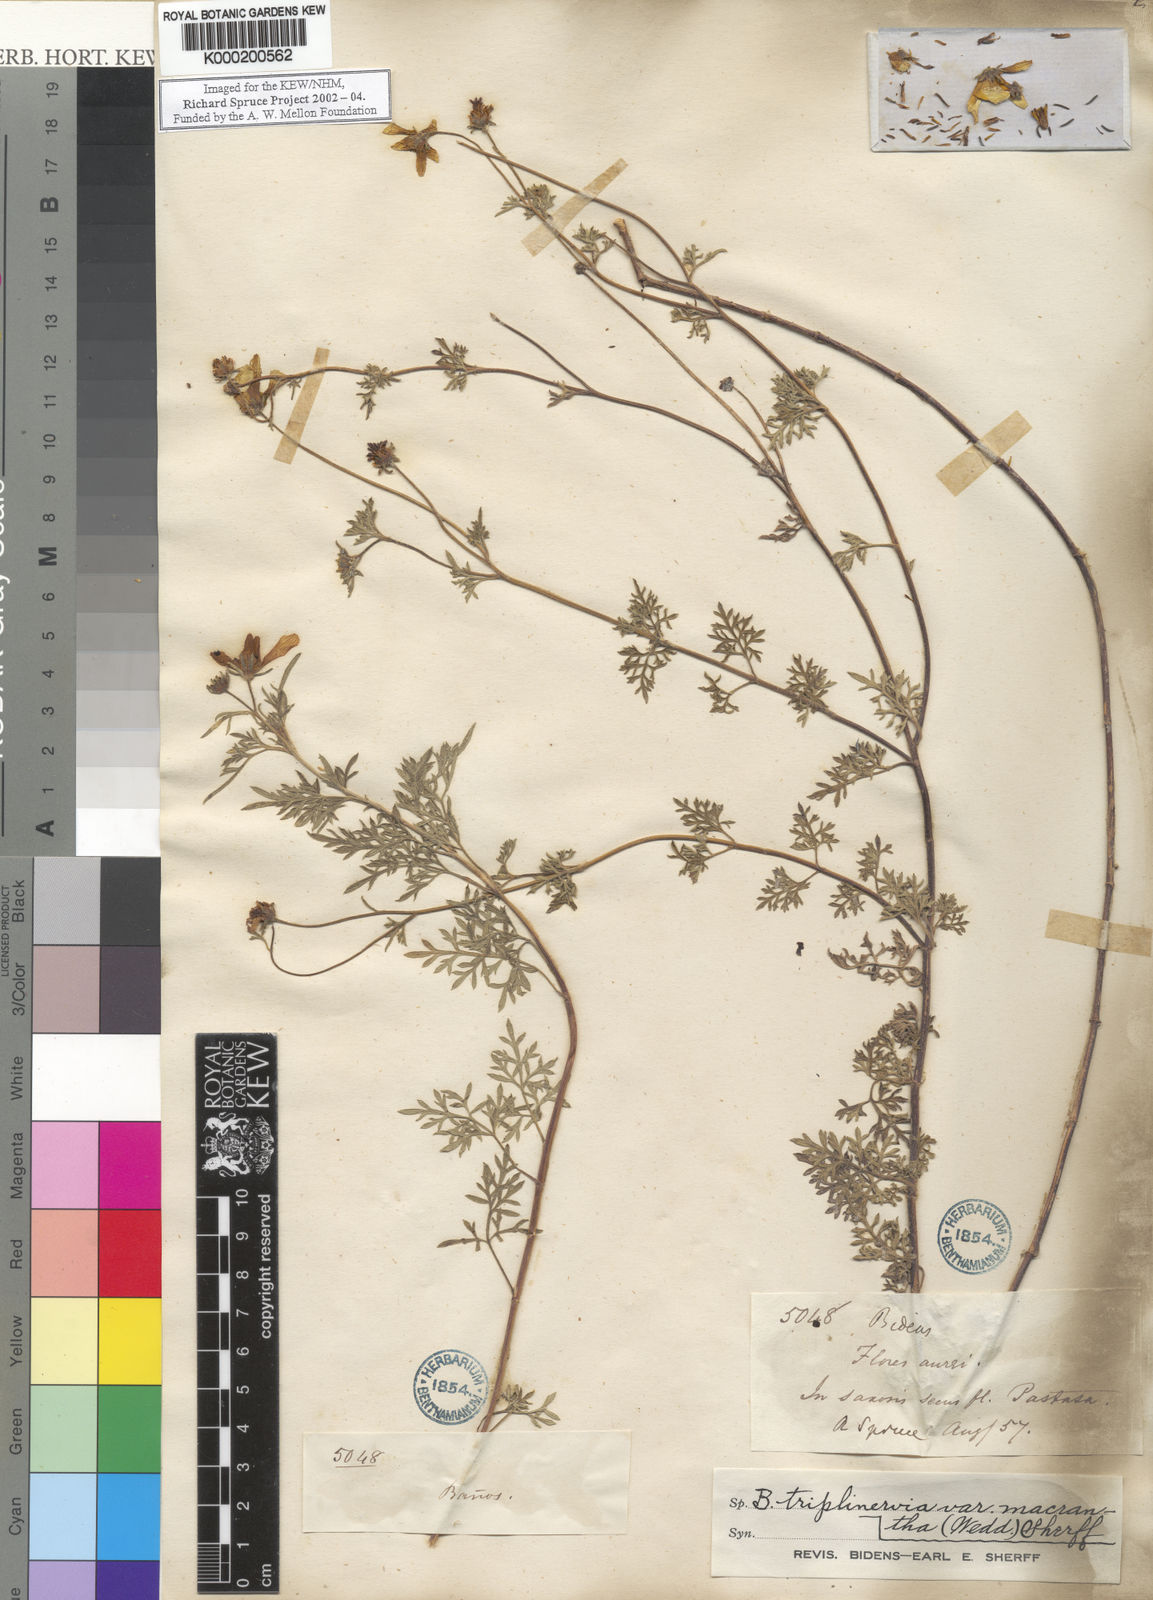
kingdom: Plantae
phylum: Tracheophyta
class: Magnoliopsida
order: Asterales
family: Asteraceae
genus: Bidens
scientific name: Bidens triplinervia
